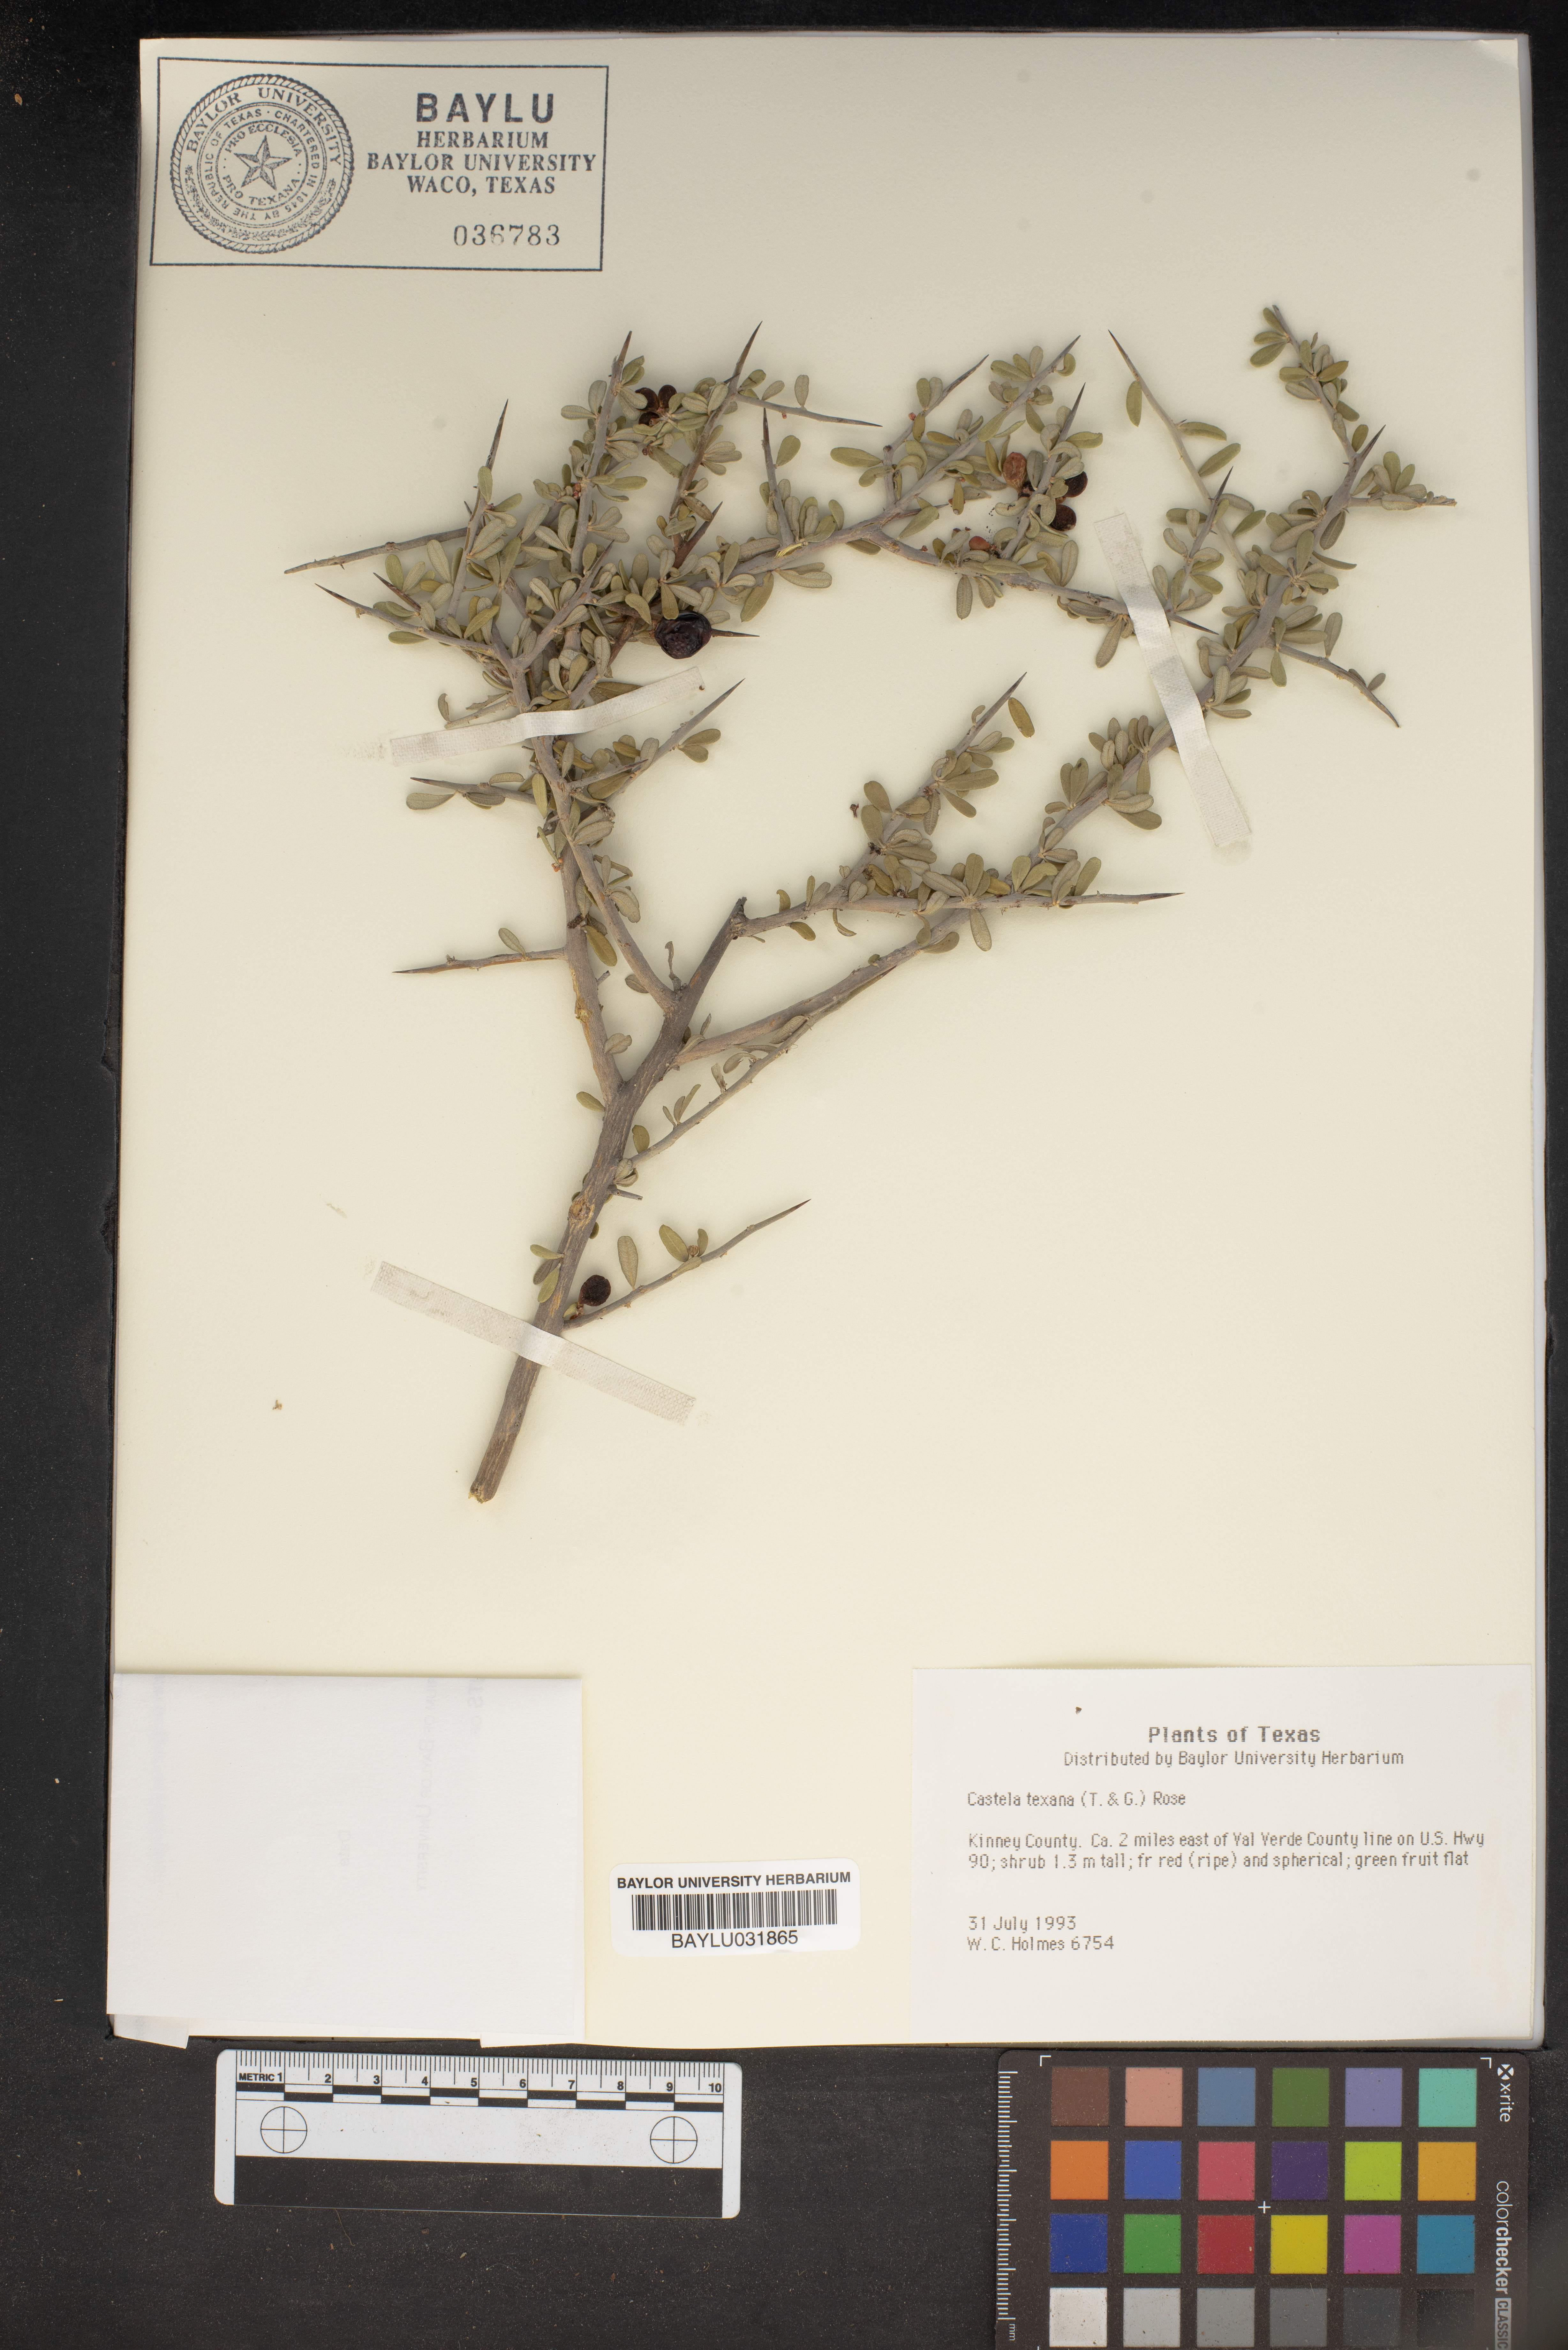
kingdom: Plantae
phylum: Tracheophyta
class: Magnoliopsida
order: Sapindales
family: Simaroubaceae
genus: Castela
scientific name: Castela tortuosa
